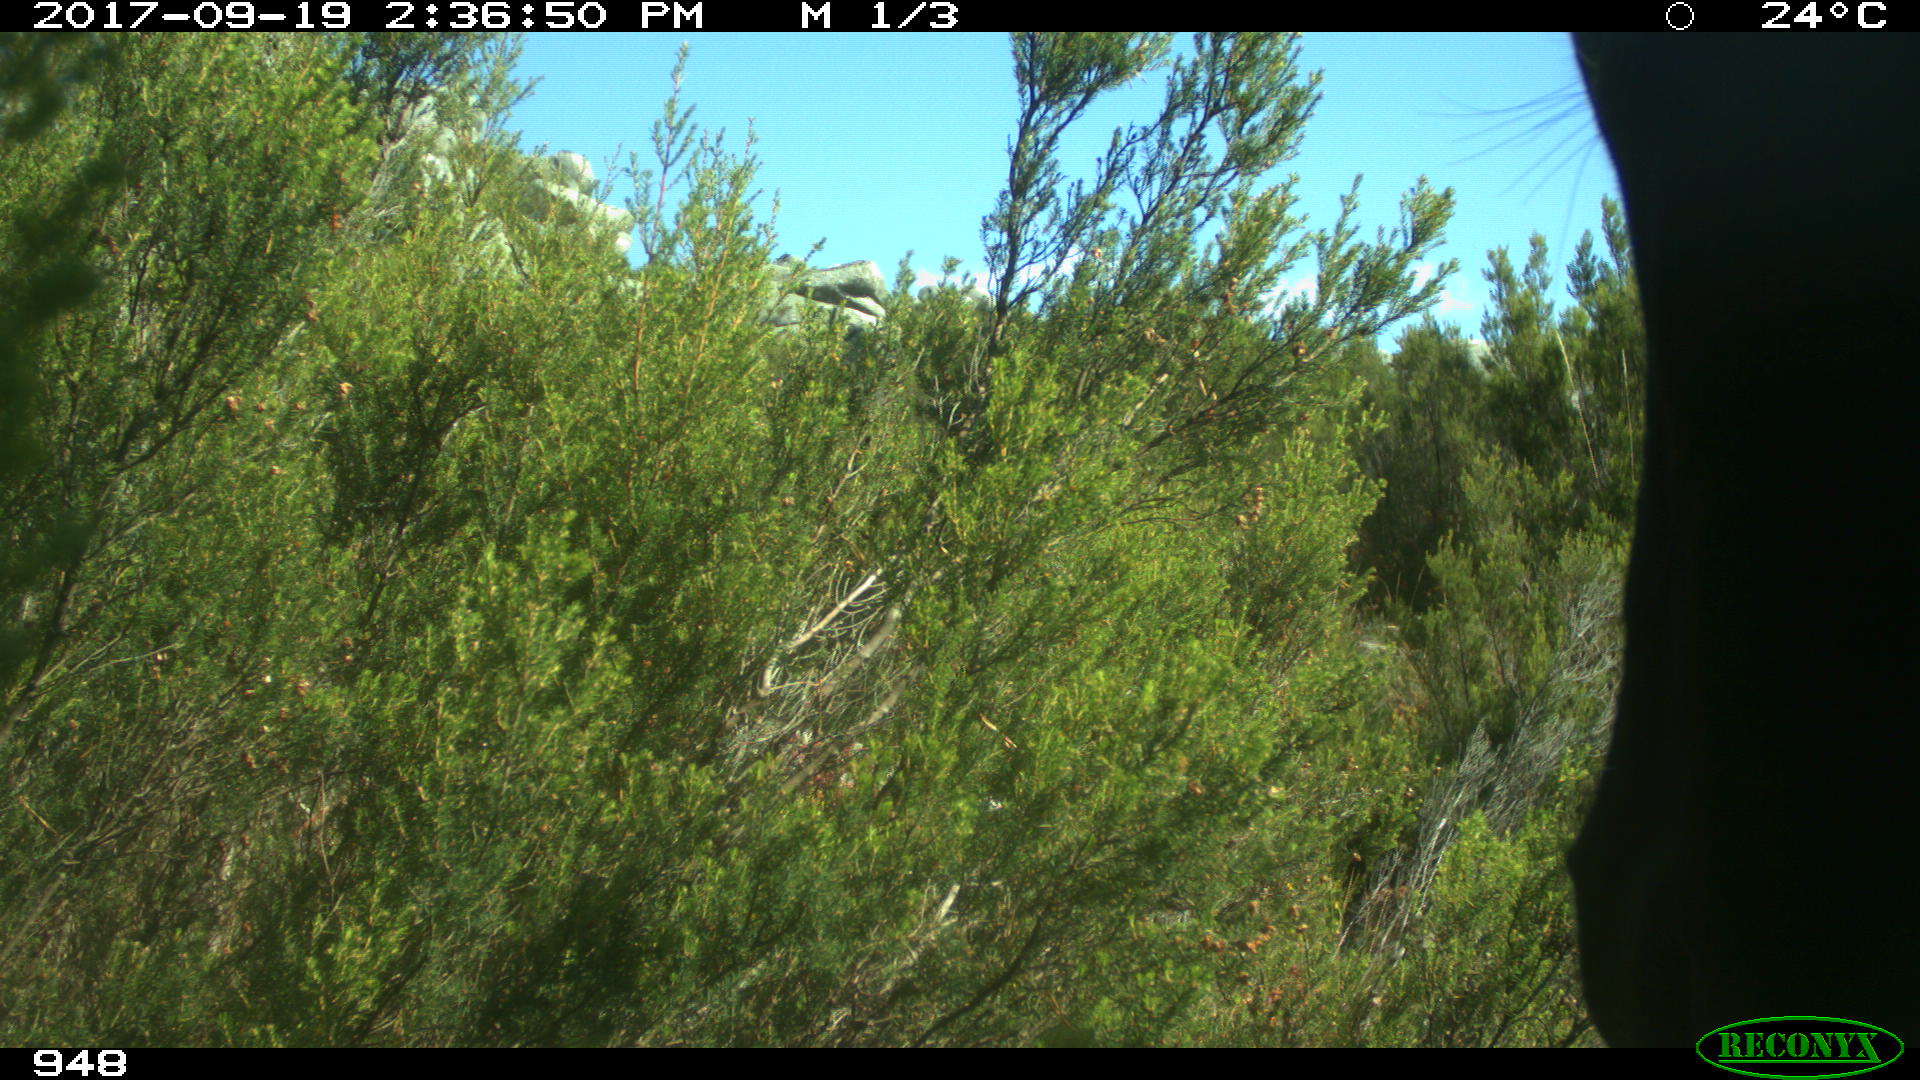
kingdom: Animalia
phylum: Chordata
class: Mammalia
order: Perissodactyla
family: Equidae
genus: Equus
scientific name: Equus caballus
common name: Horse
